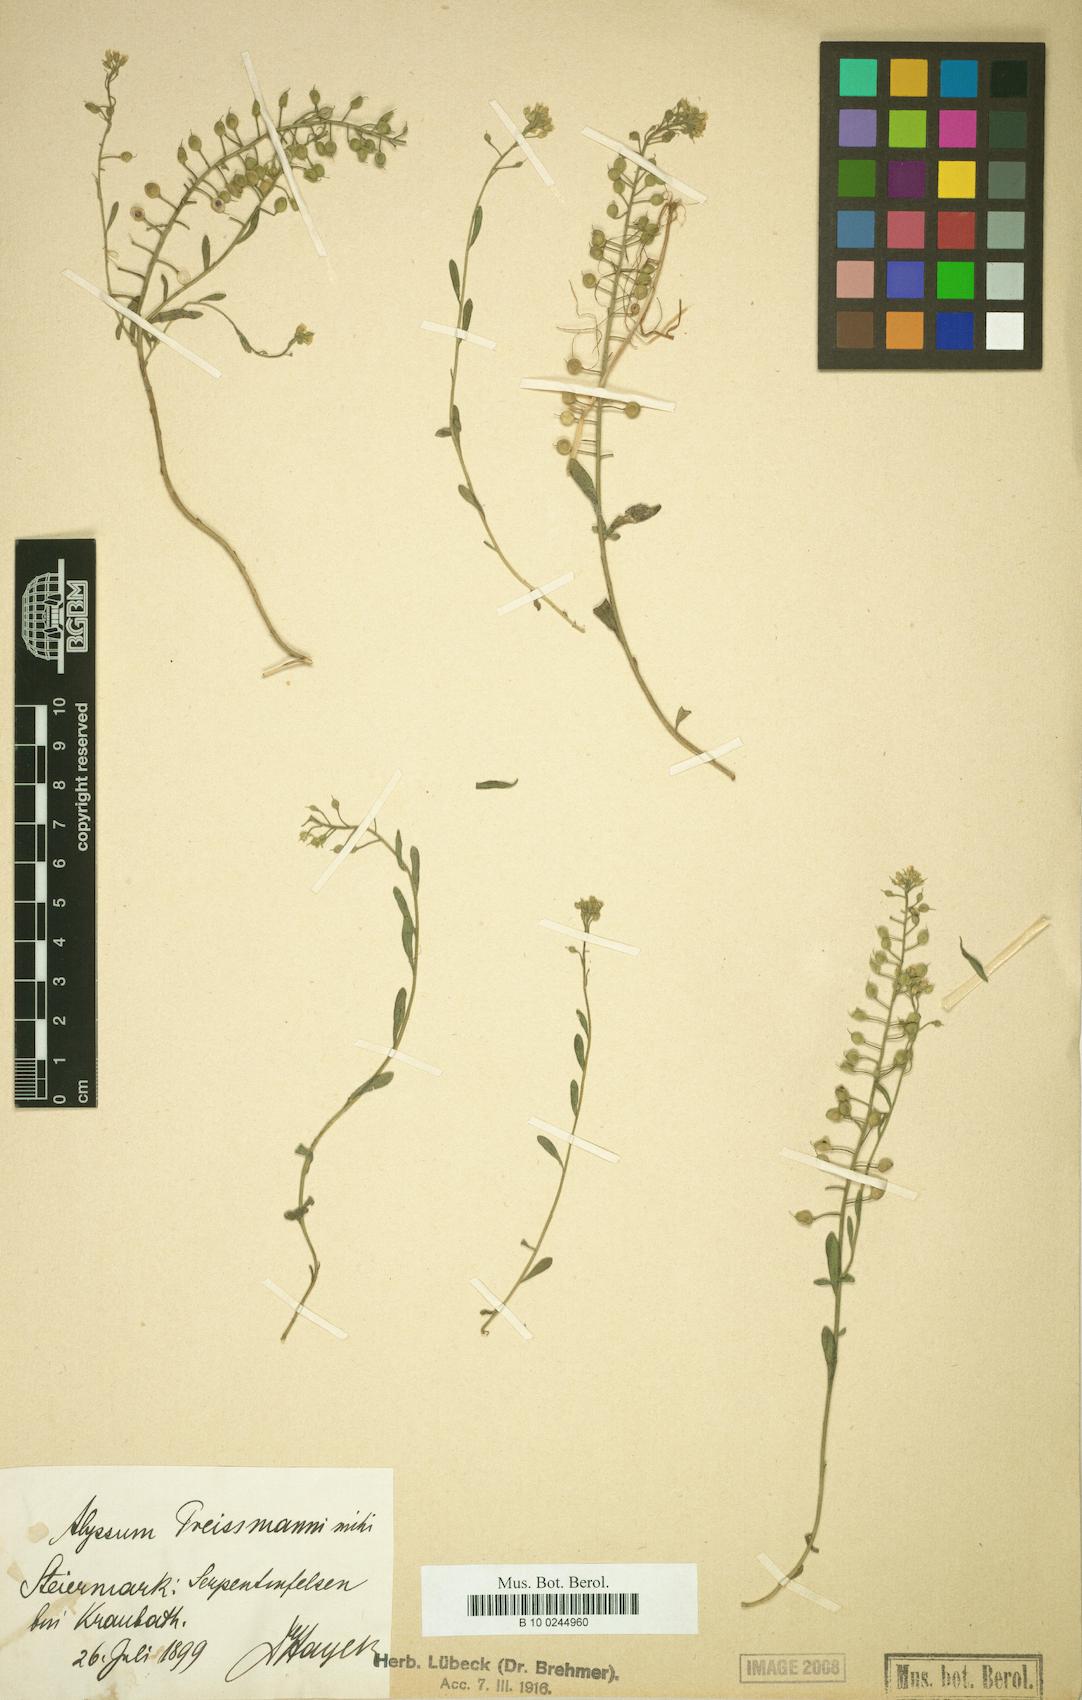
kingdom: Plantae
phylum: Tracheophyta
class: Magnoliopsida
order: Brassicales
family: Brassicaceae
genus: Alyssum
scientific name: Alyssum gmelinii
